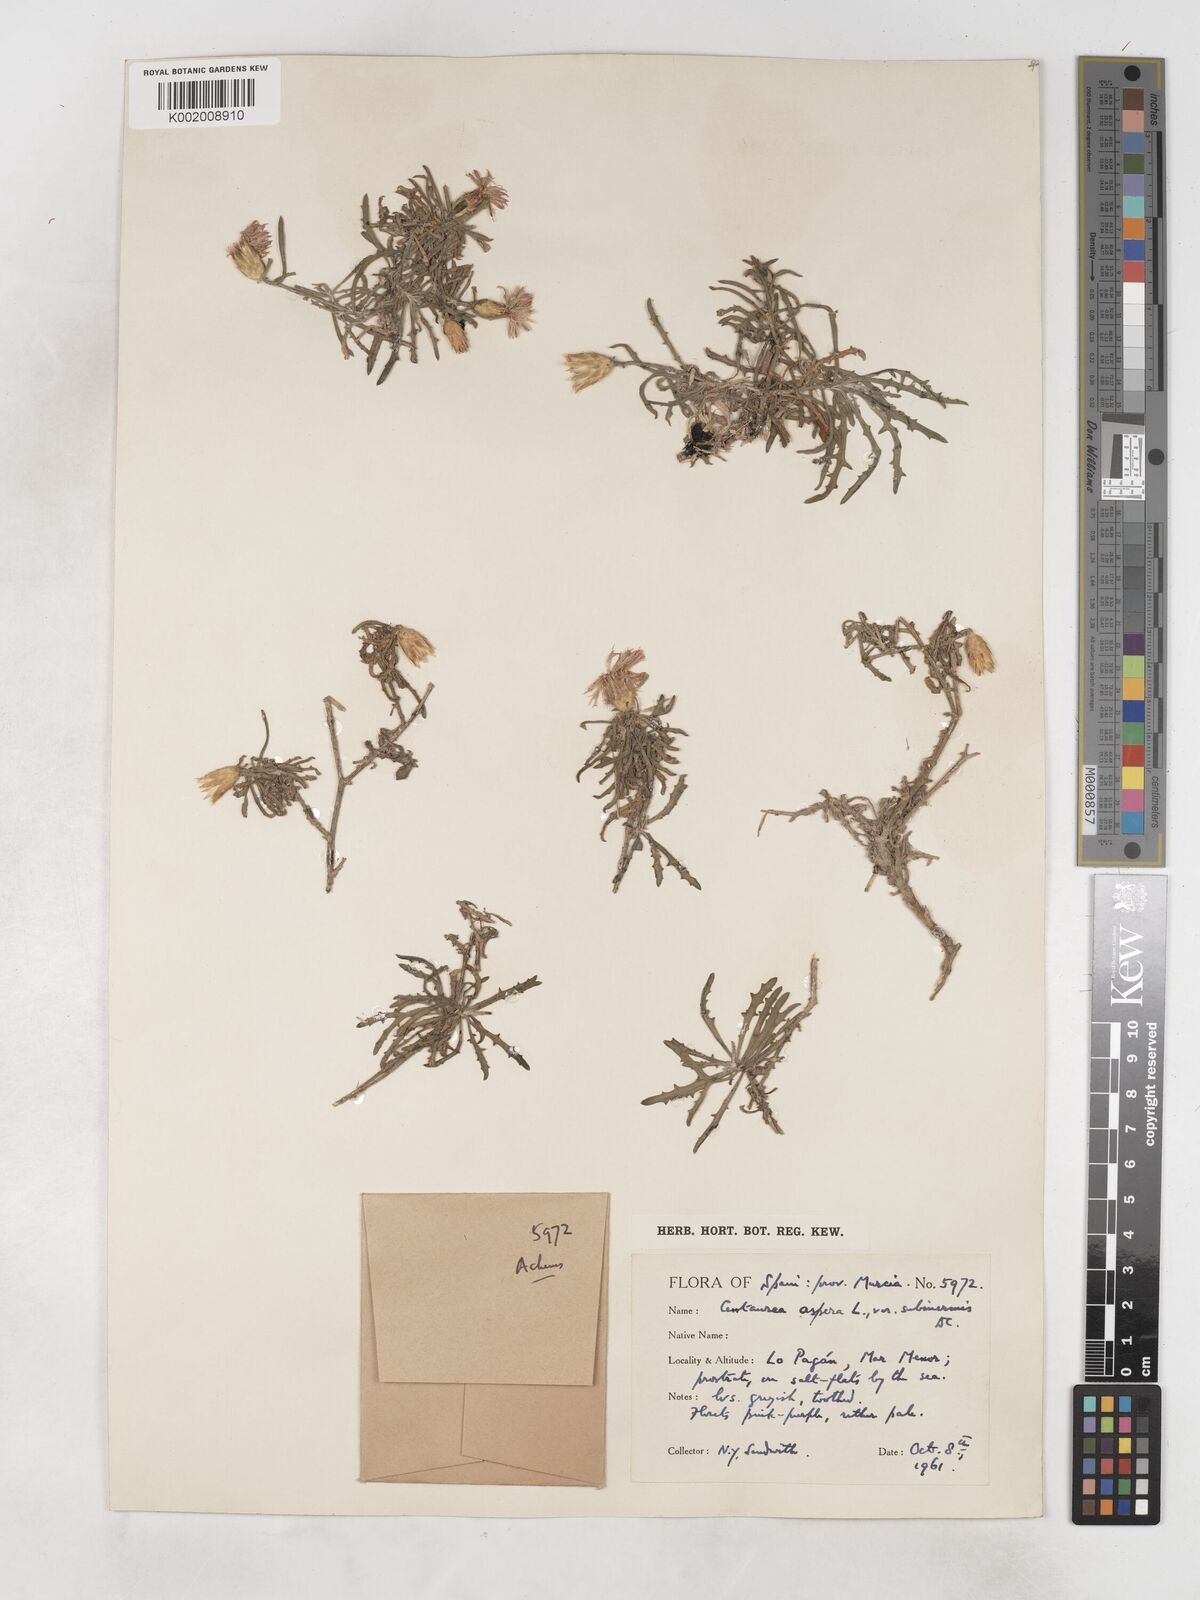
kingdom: Plantae
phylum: Tracheophyta
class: Magnoliopsida
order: Asterales
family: Asteraceae
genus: Centaurea
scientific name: Centaurea aspera
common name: Rough star-thistle
